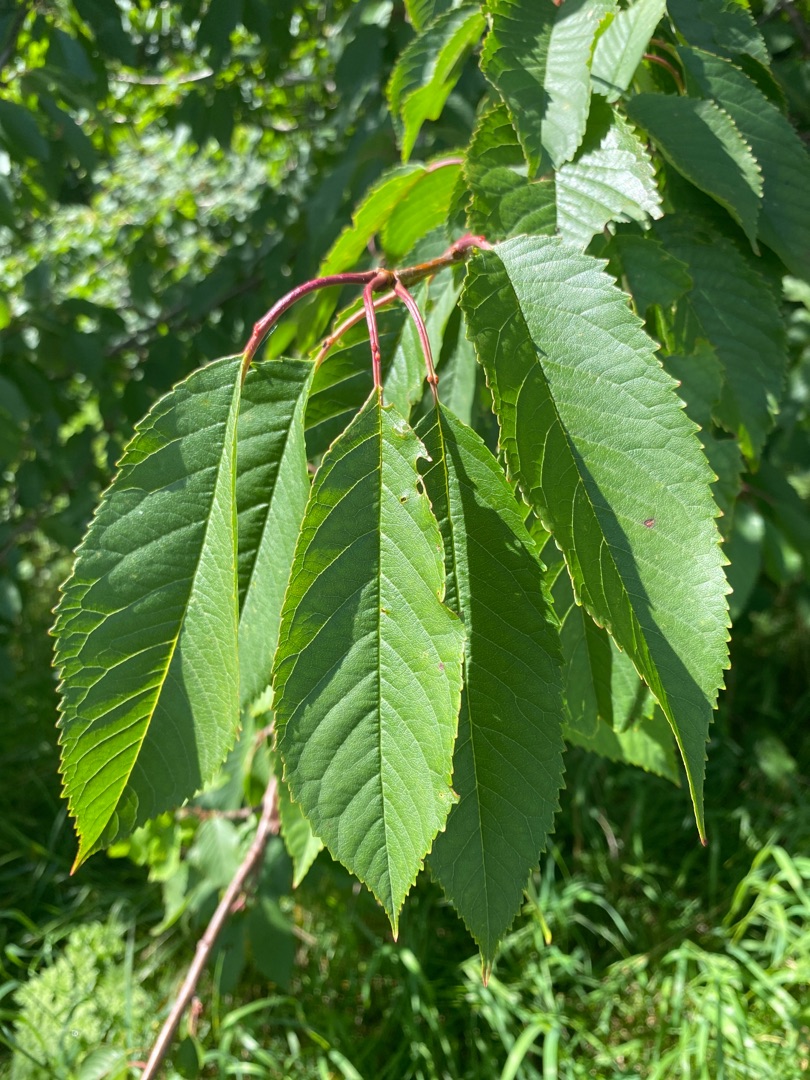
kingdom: Plantae
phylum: Tracheophyta
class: Magnoliopsida
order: Rosales
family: Rosaceae
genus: Prunus
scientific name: Prunus avium
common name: Fugle-kirsebær
